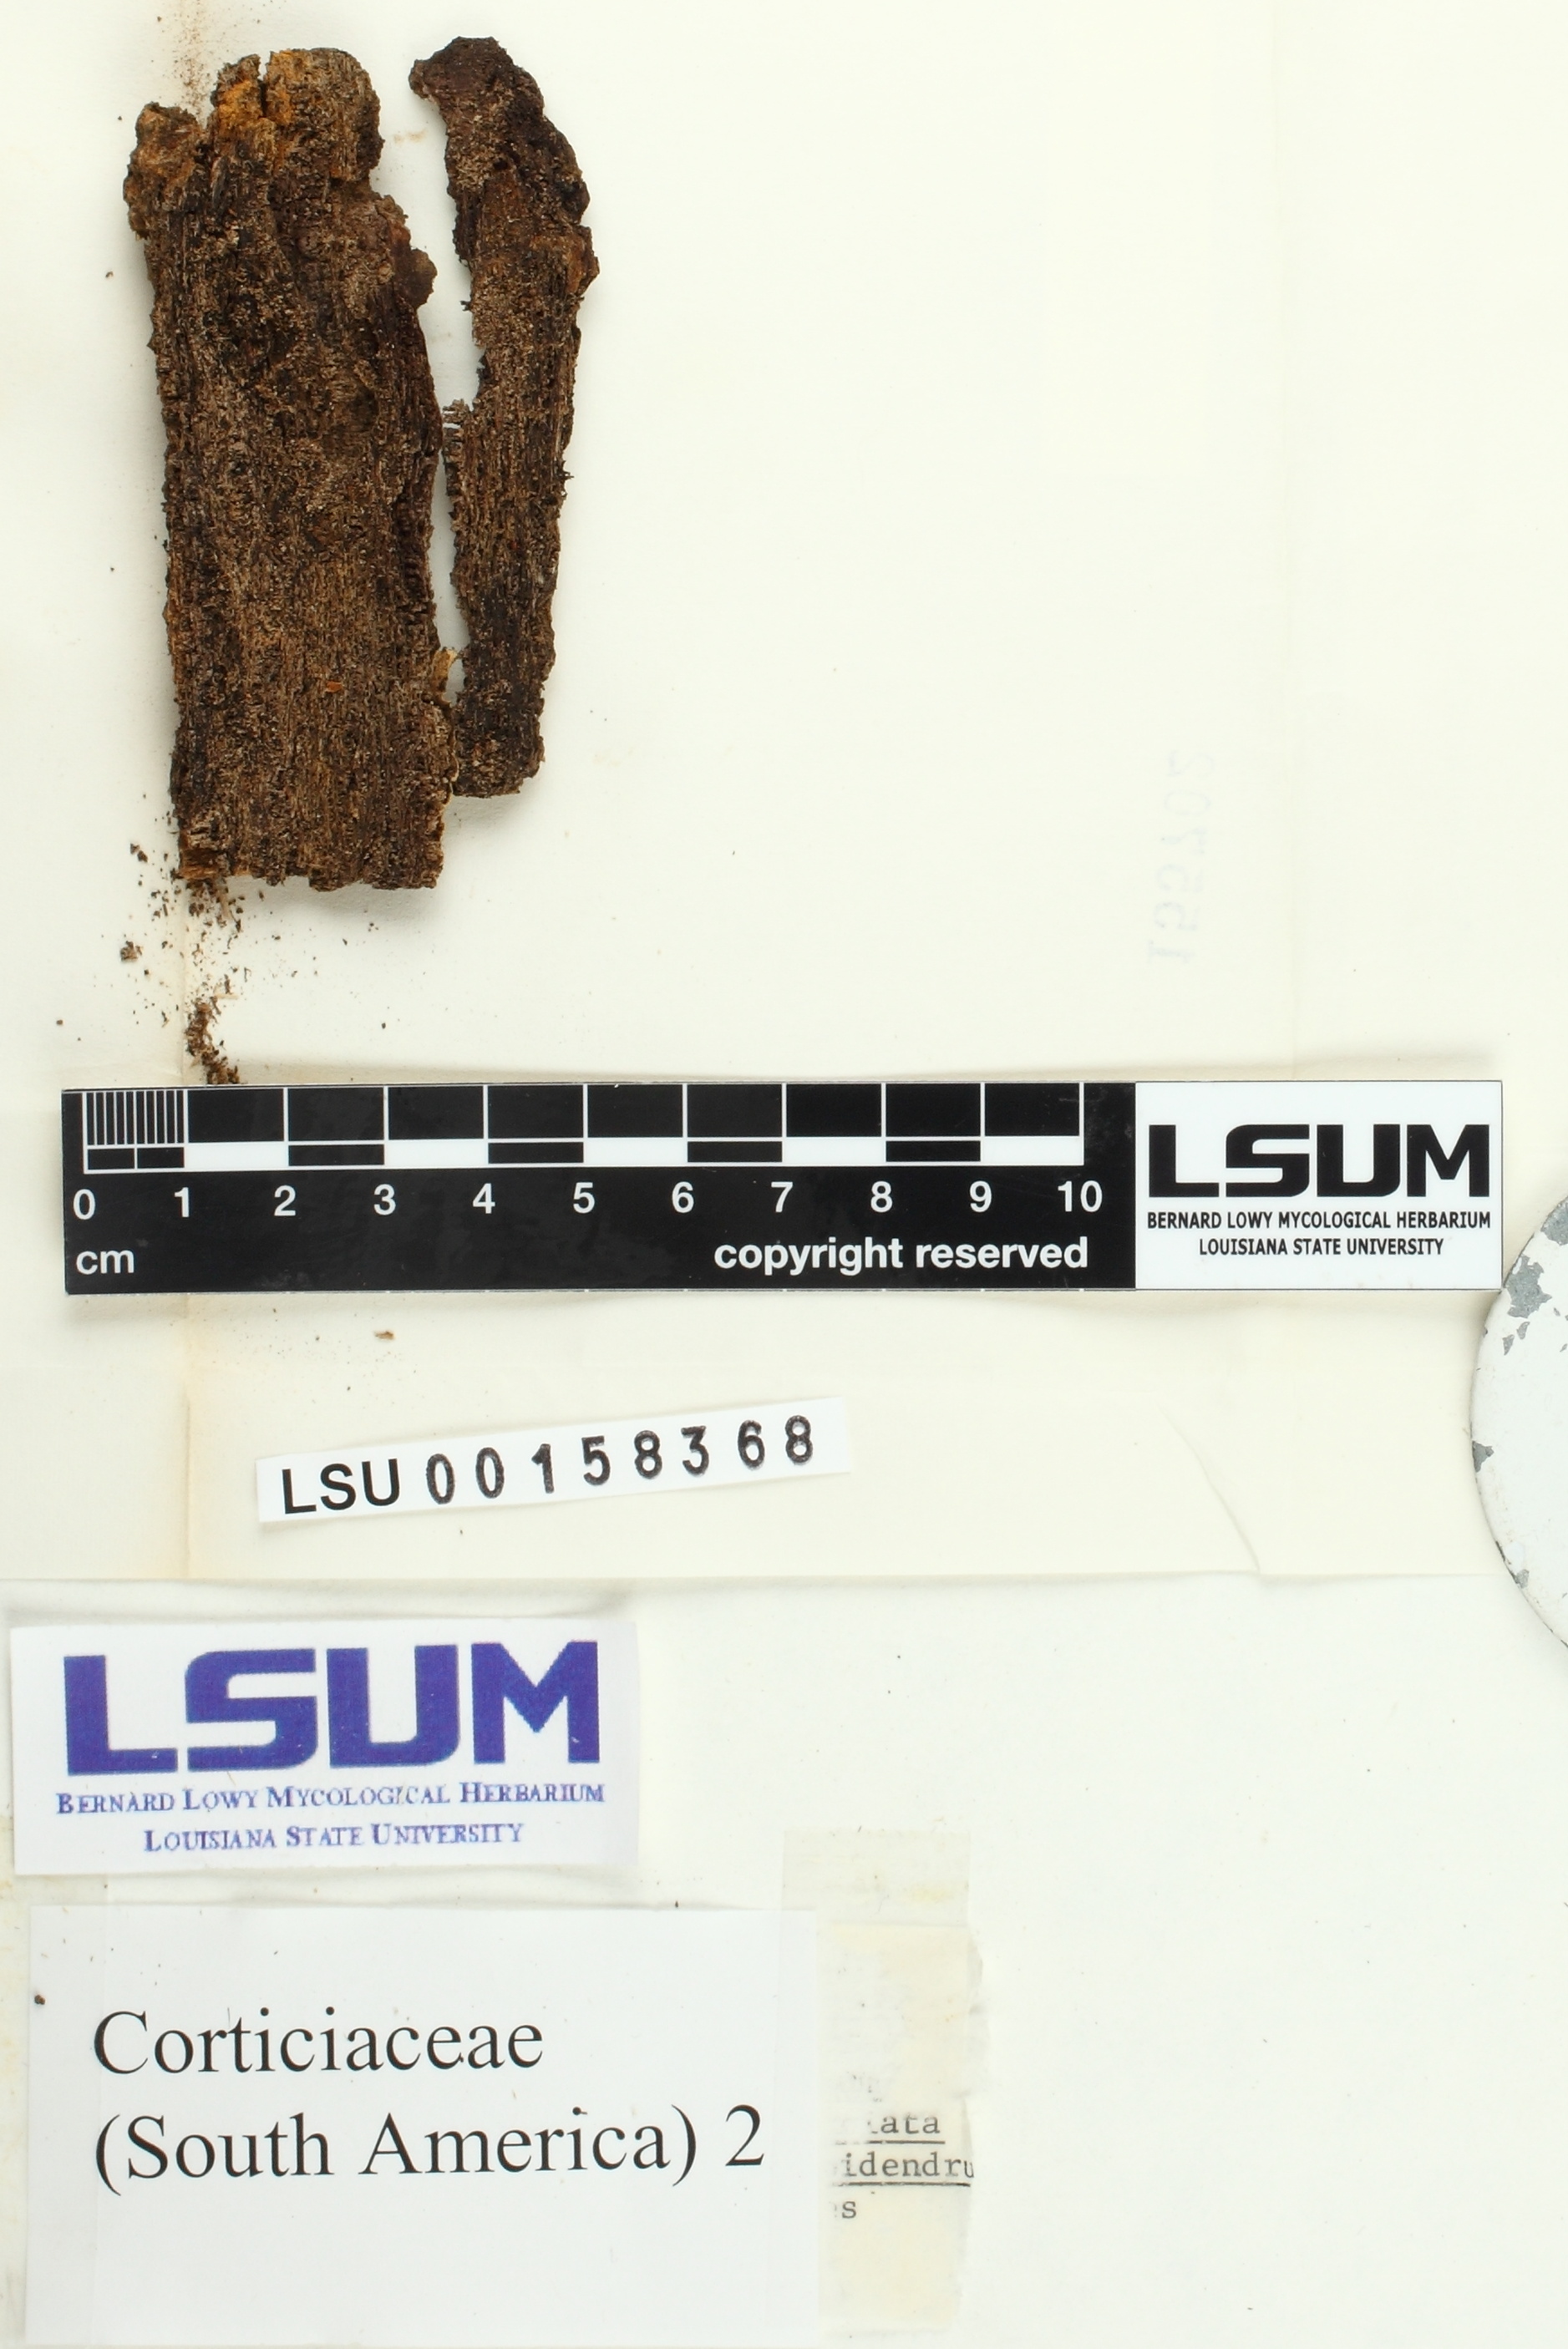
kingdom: Fungi
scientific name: Fungi
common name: Fungi
